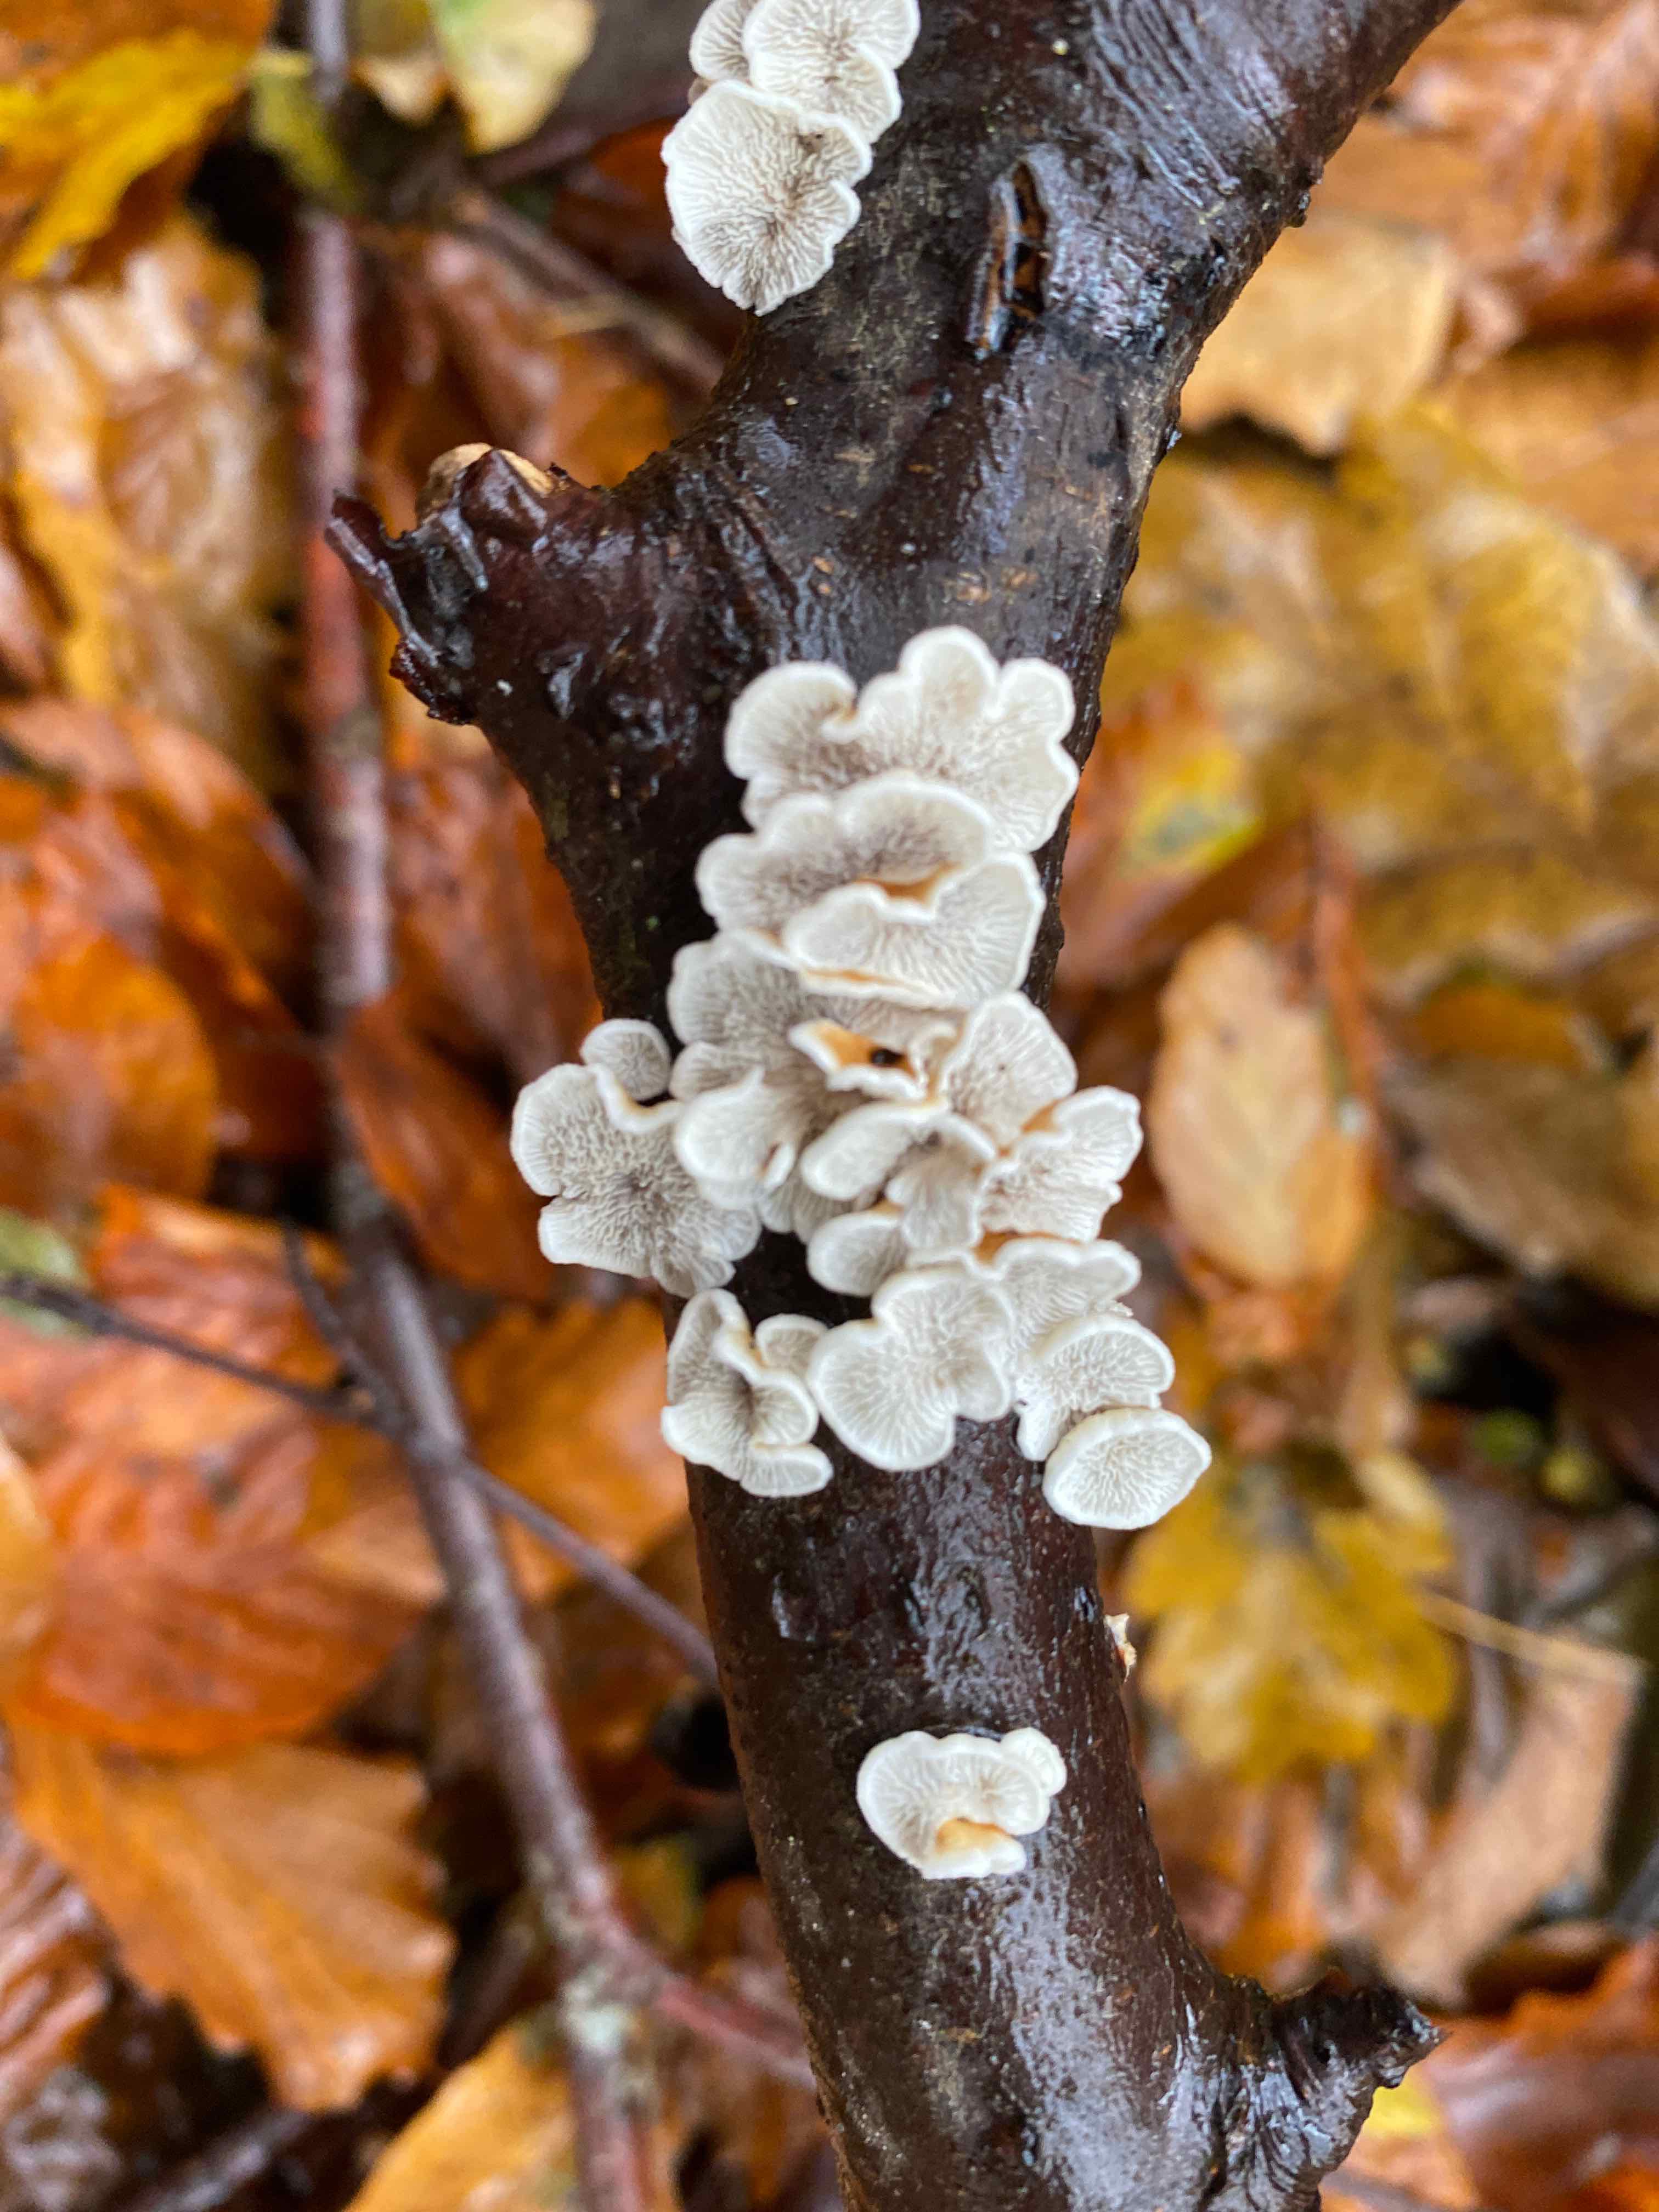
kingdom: Fungi
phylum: Basidiomycota
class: Agaricomycetes
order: Amylocorticiales
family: Amylocorticiaceae
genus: Plicaturopsis
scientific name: Plicaturopsis crispa
